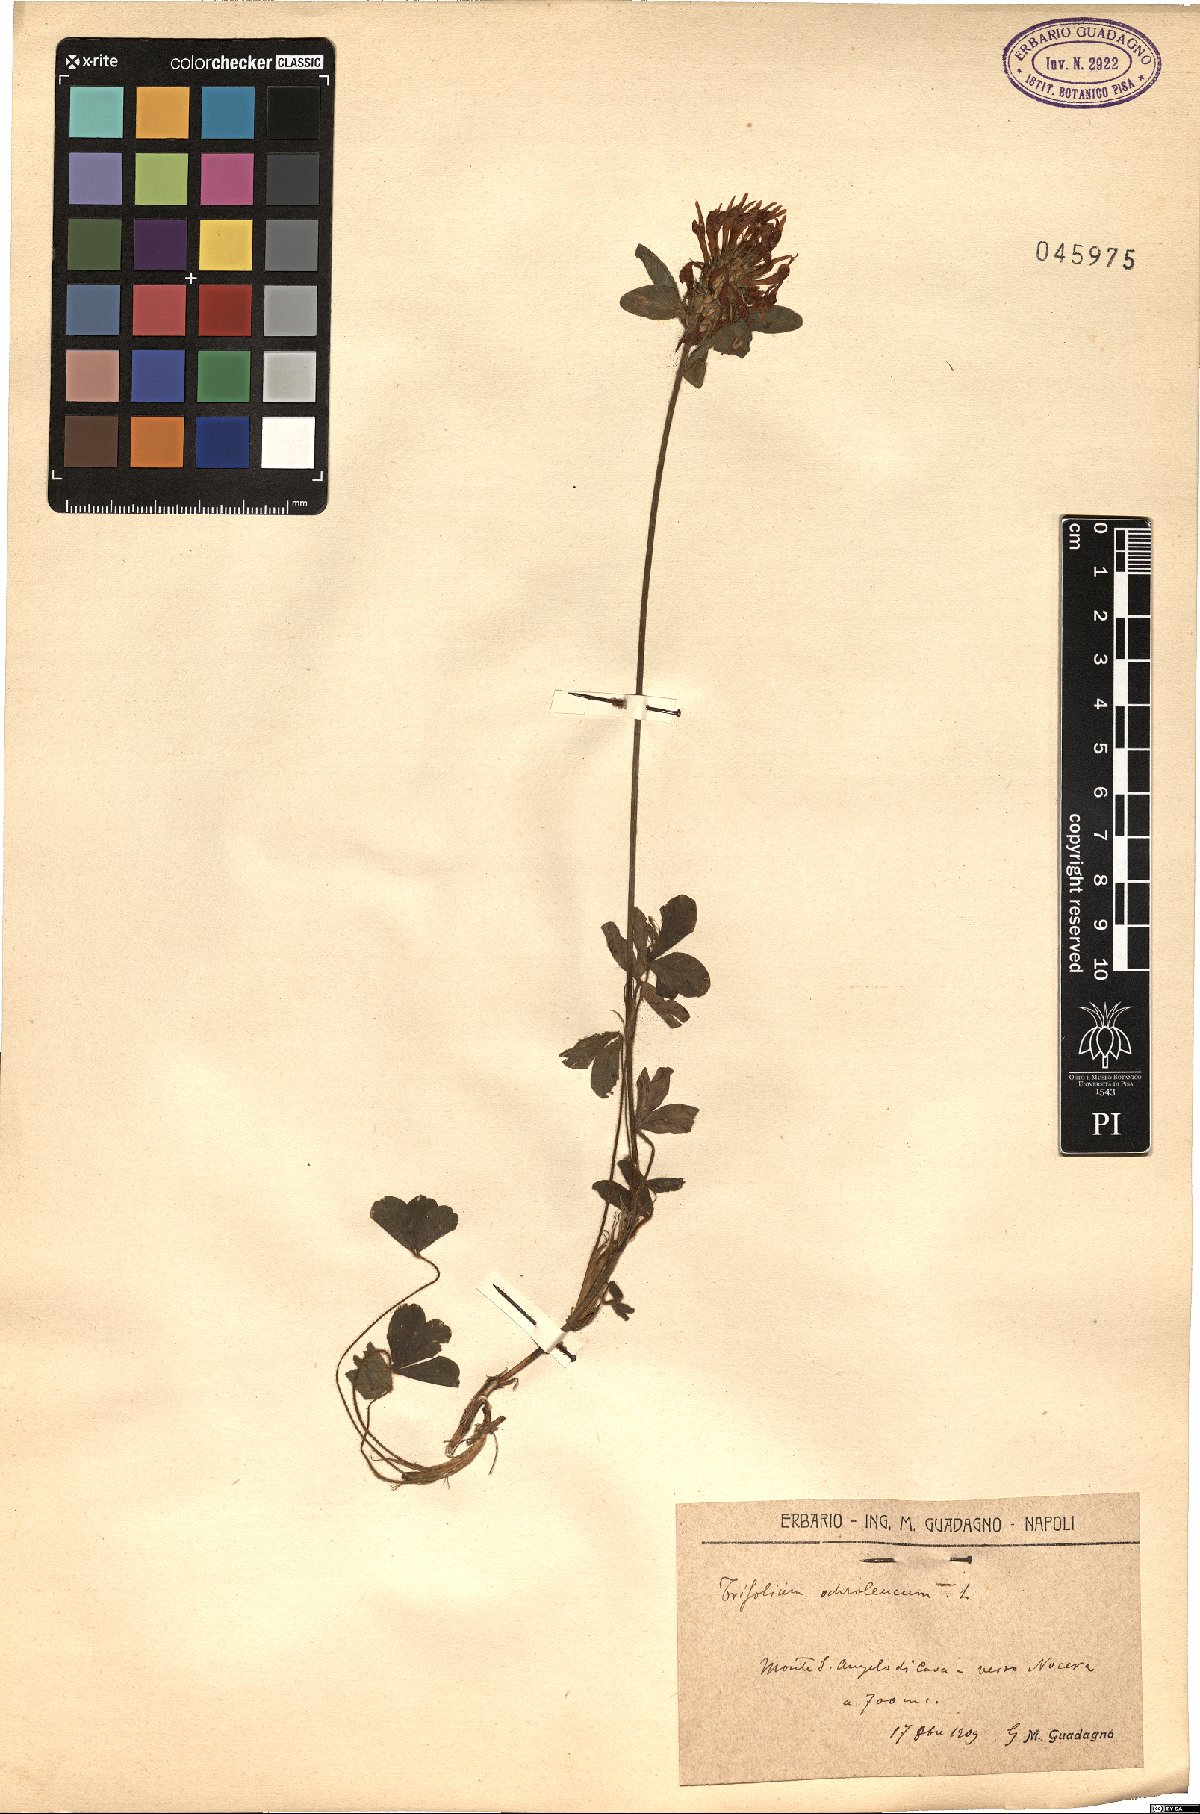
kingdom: Plantae
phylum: Tracheophyta
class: Magnoliopsida
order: Fabales
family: Fabaceae
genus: Trifolium
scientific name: Trifolium ochroleucon
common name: Sulphur clover
